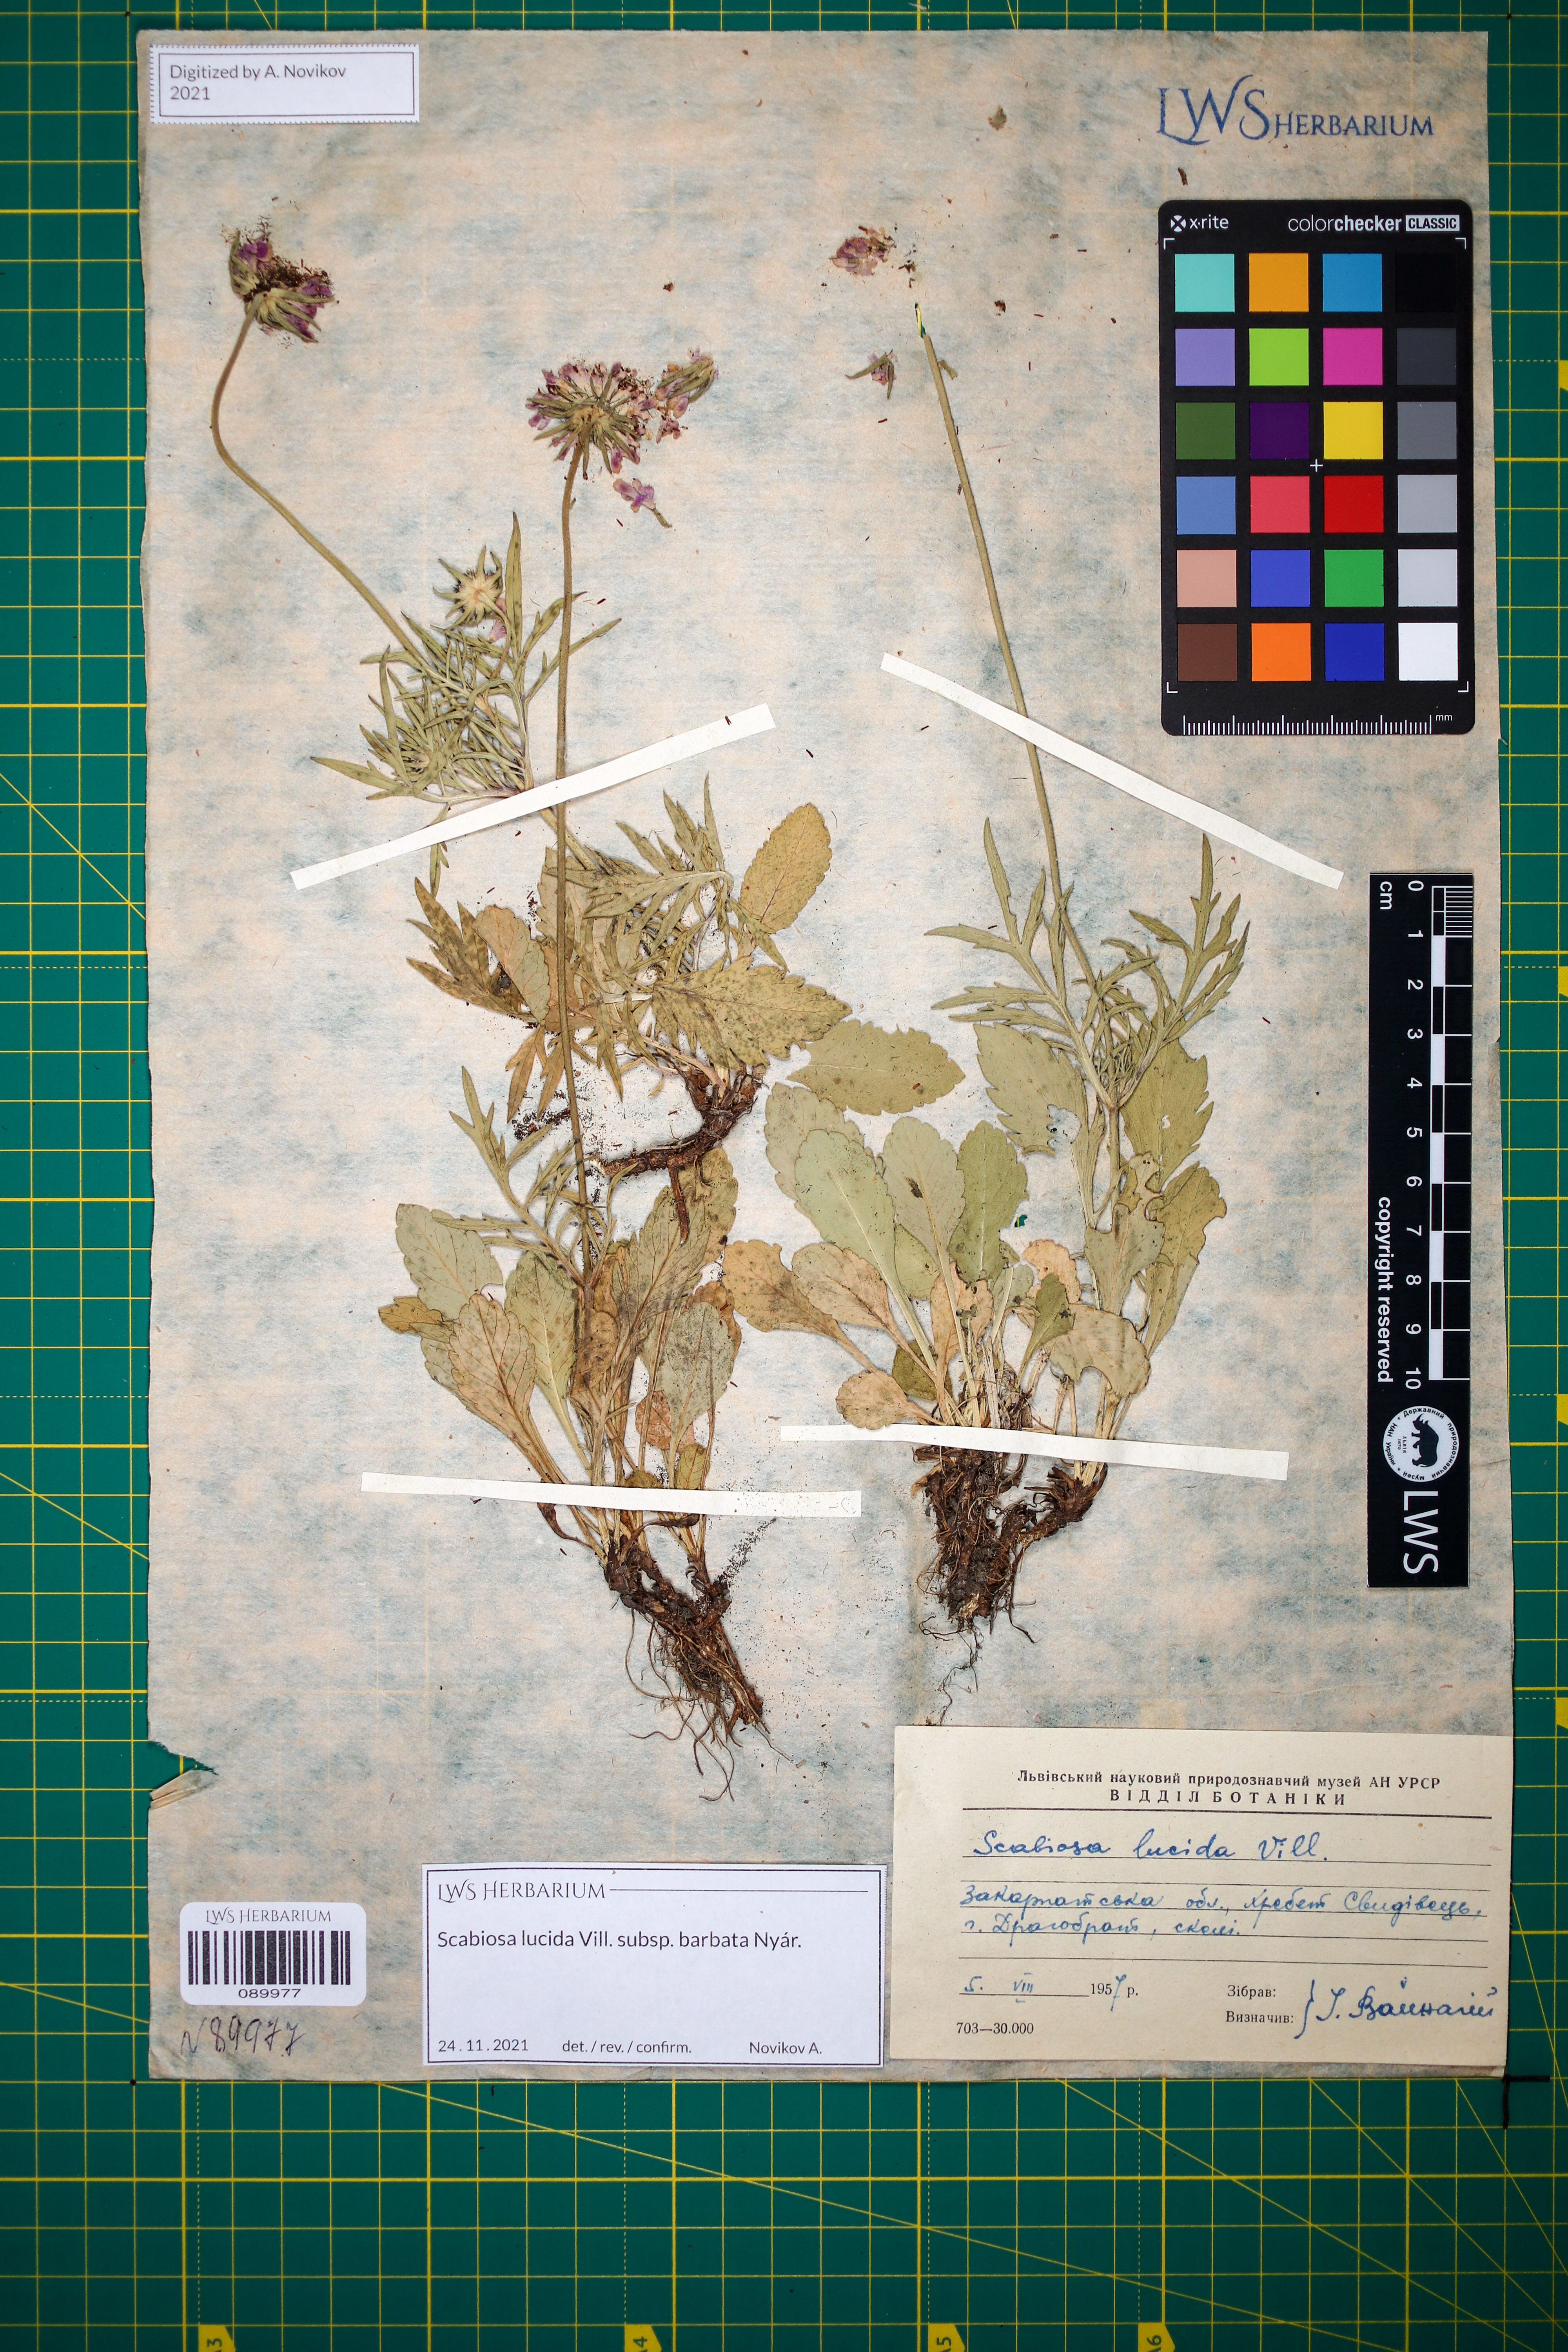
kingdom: Plantae
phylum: Tracheophyta
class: Magnoliopsida
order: Dipsacales
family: Caprifoliaceae
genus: Scabiosa
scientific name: Scabiosa lucida
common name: Shining scabious
